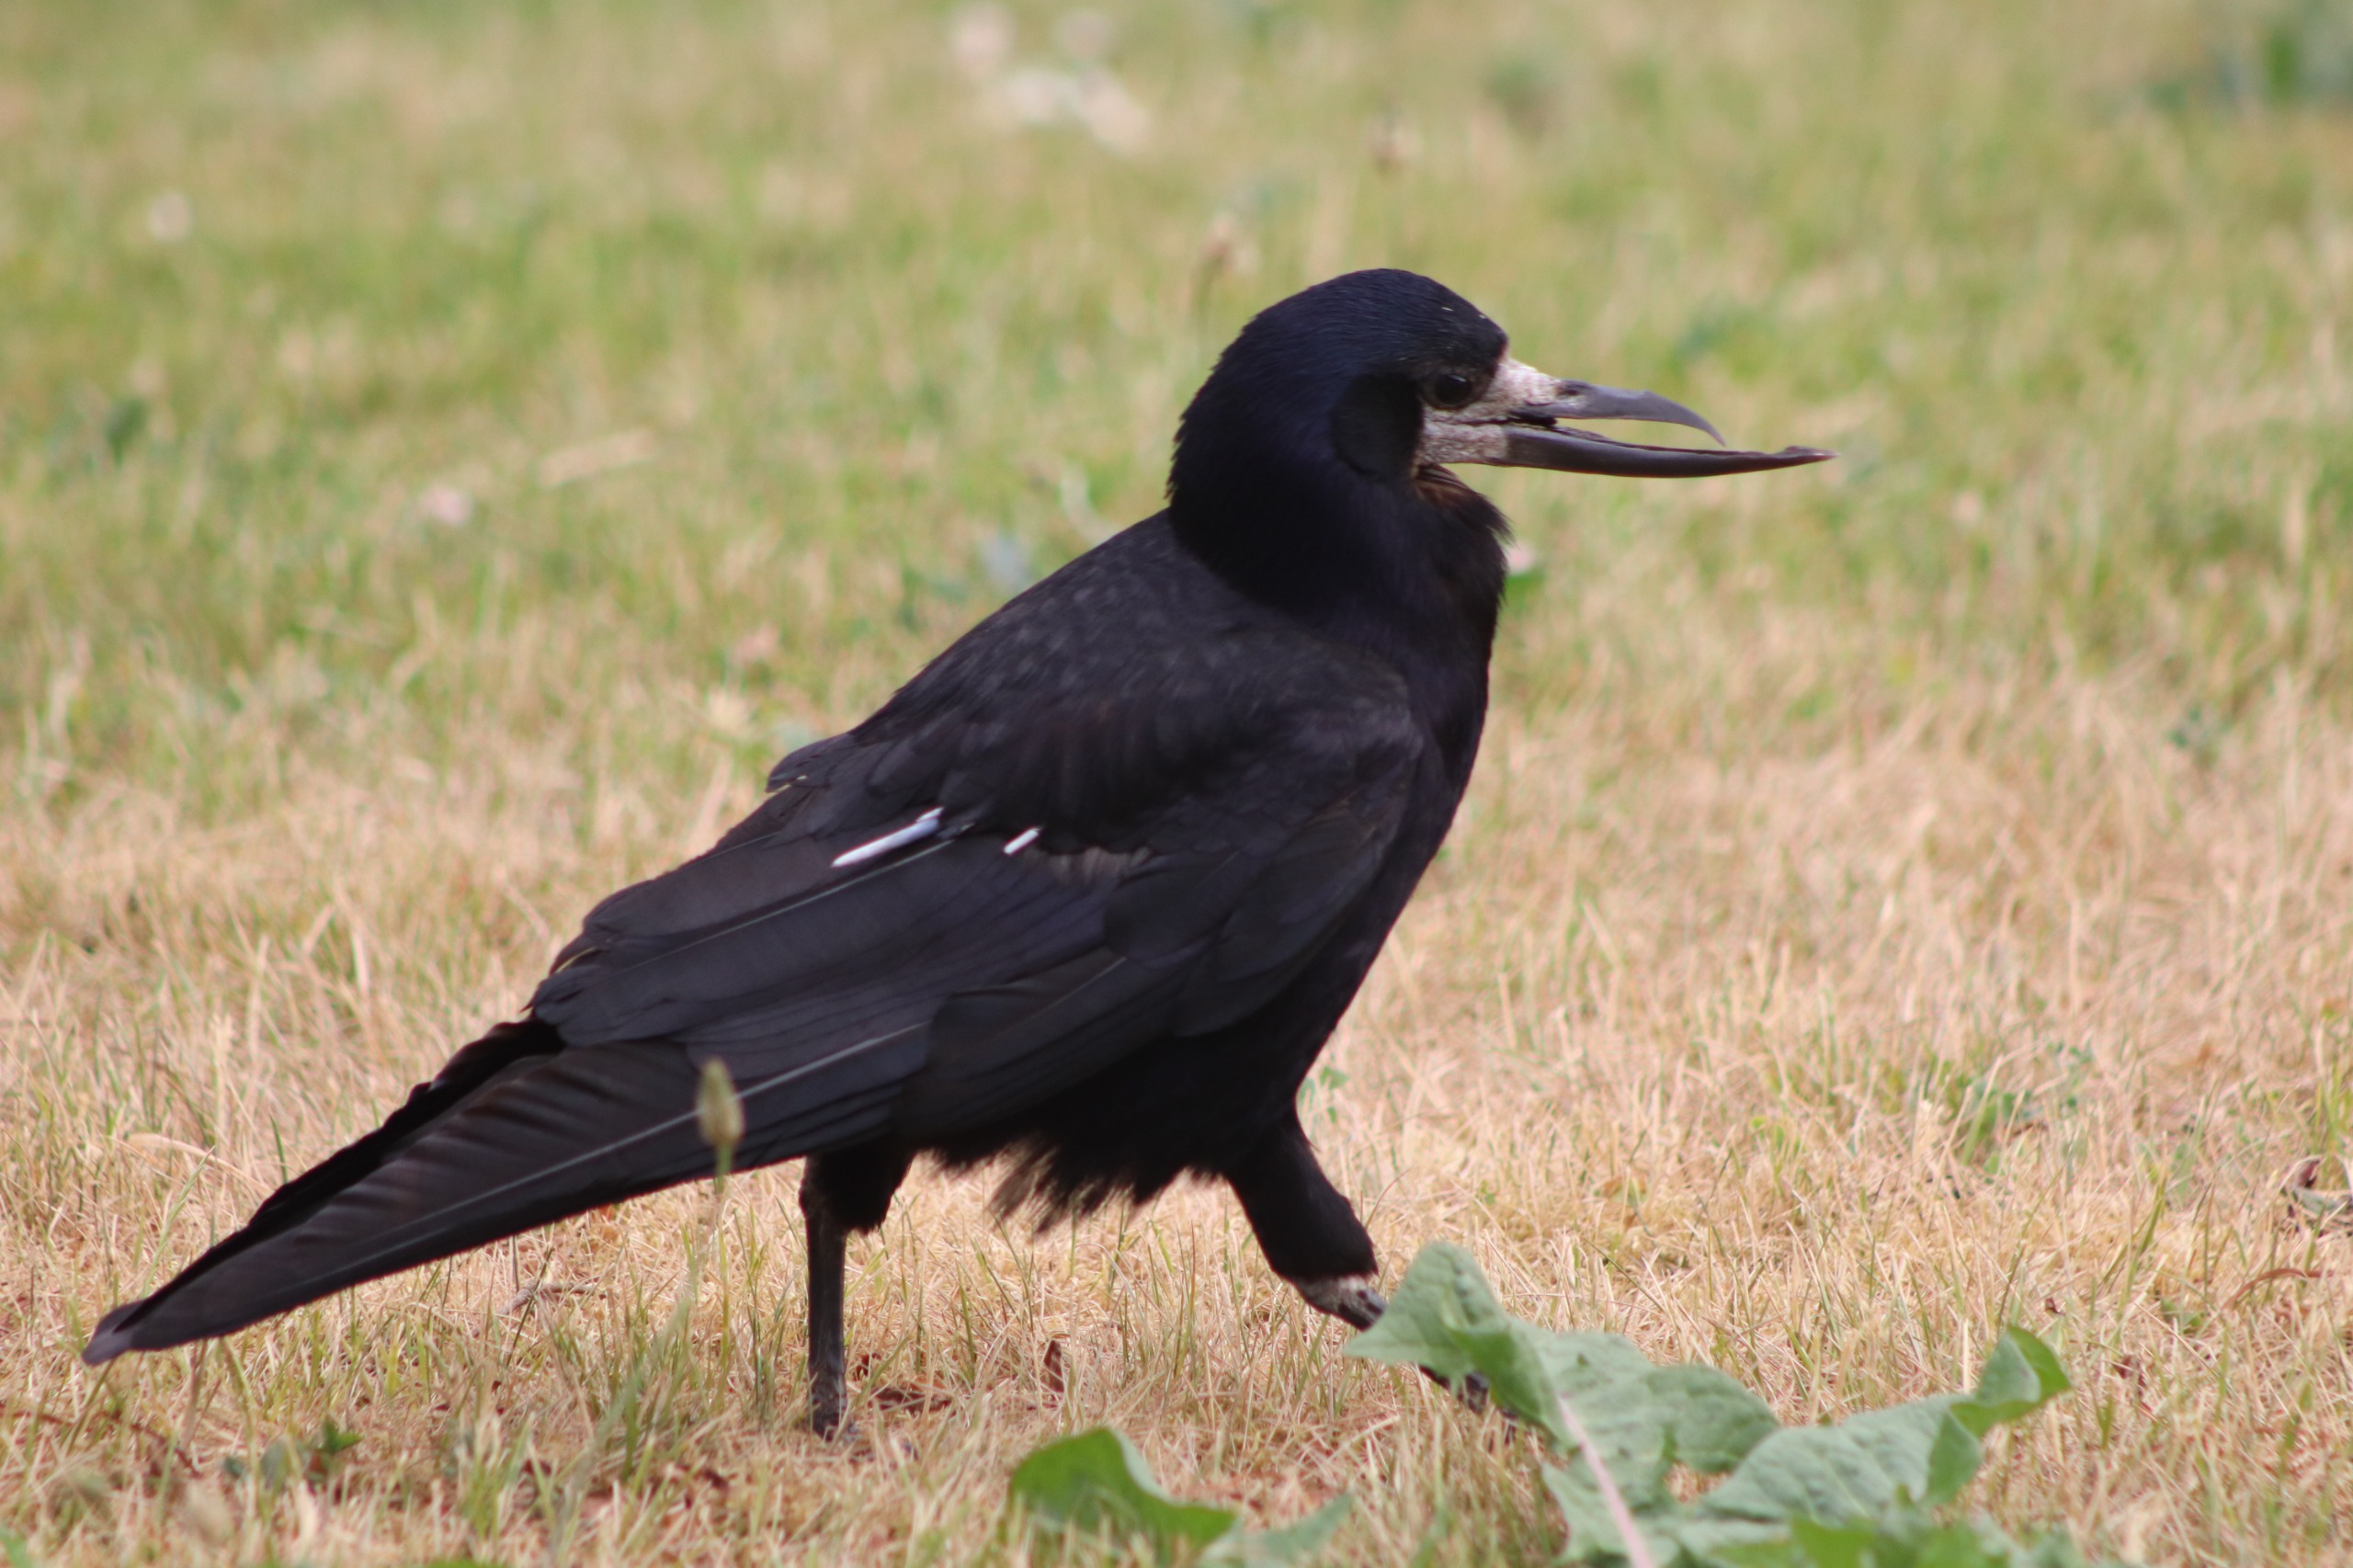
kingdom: Animalia
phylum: Chordata
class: Aves
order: Passeriformes
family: Corvidae
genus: Corvus
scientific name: Corvus frugilegus
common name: Råge
